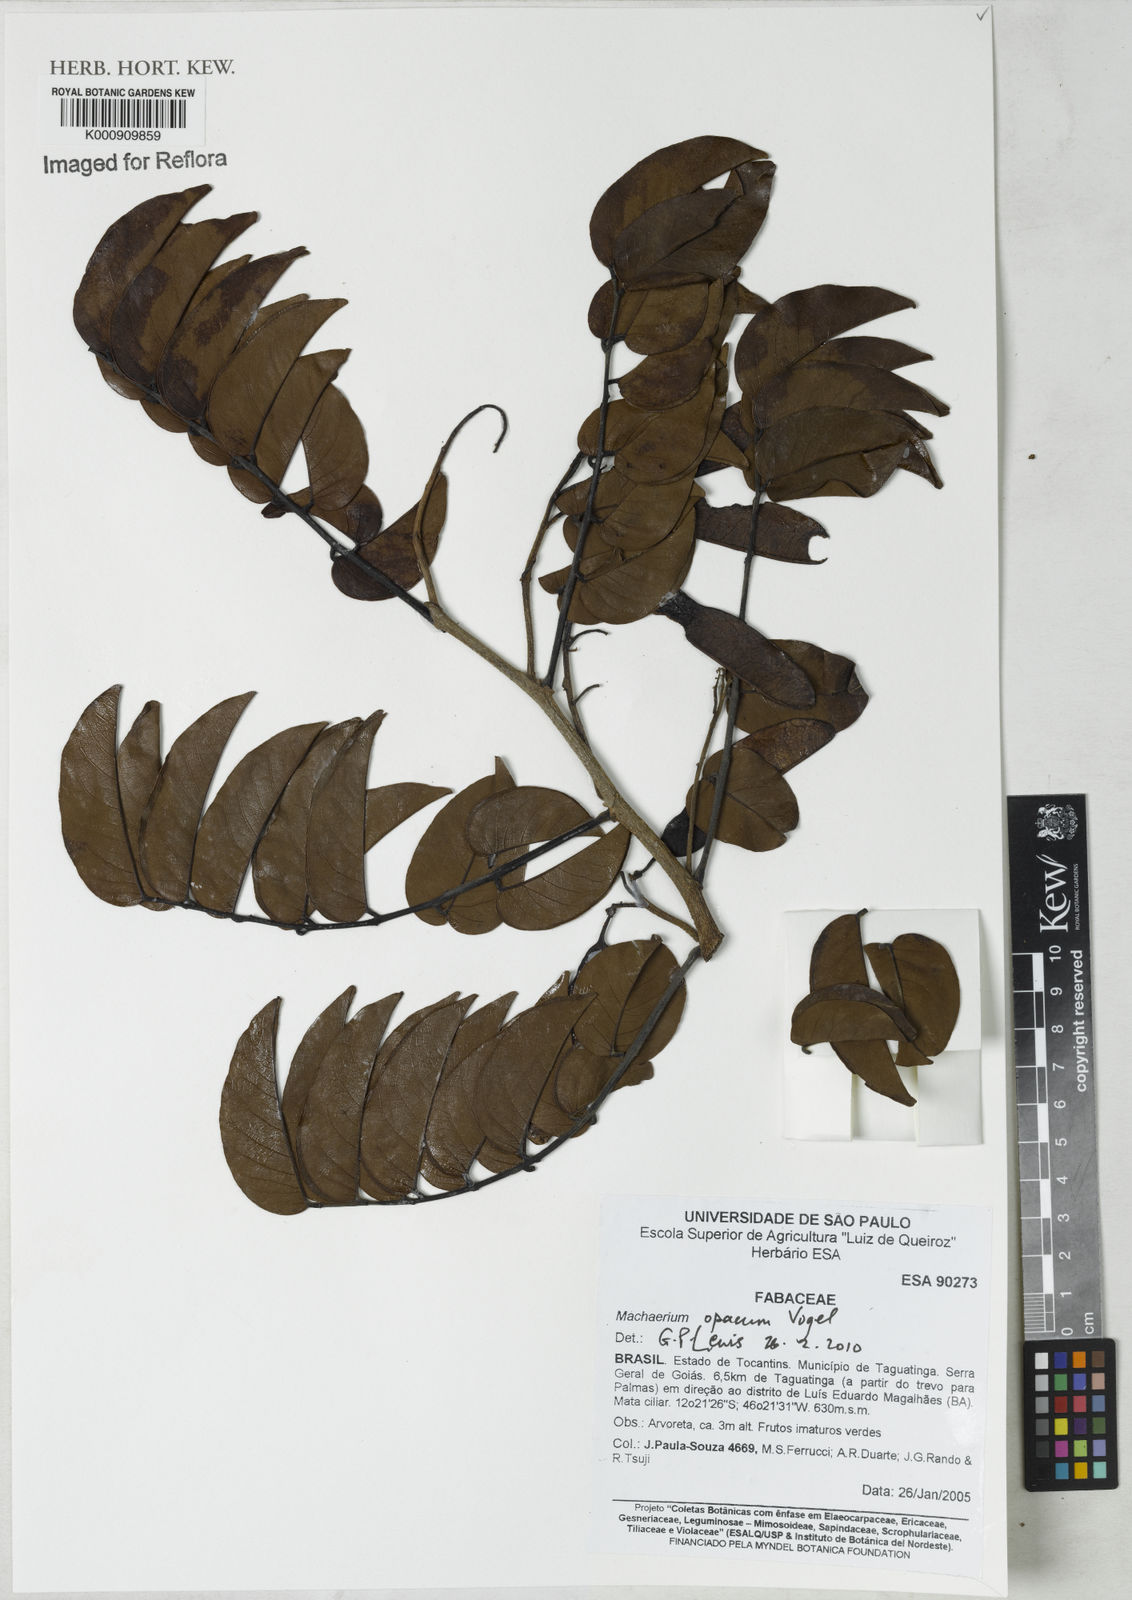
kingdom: Plantae
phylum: Tracheophyta
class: Magnoliopsida
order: Fabales
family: Fabaceae
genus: Machaerium
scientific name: Machaerium opacum
